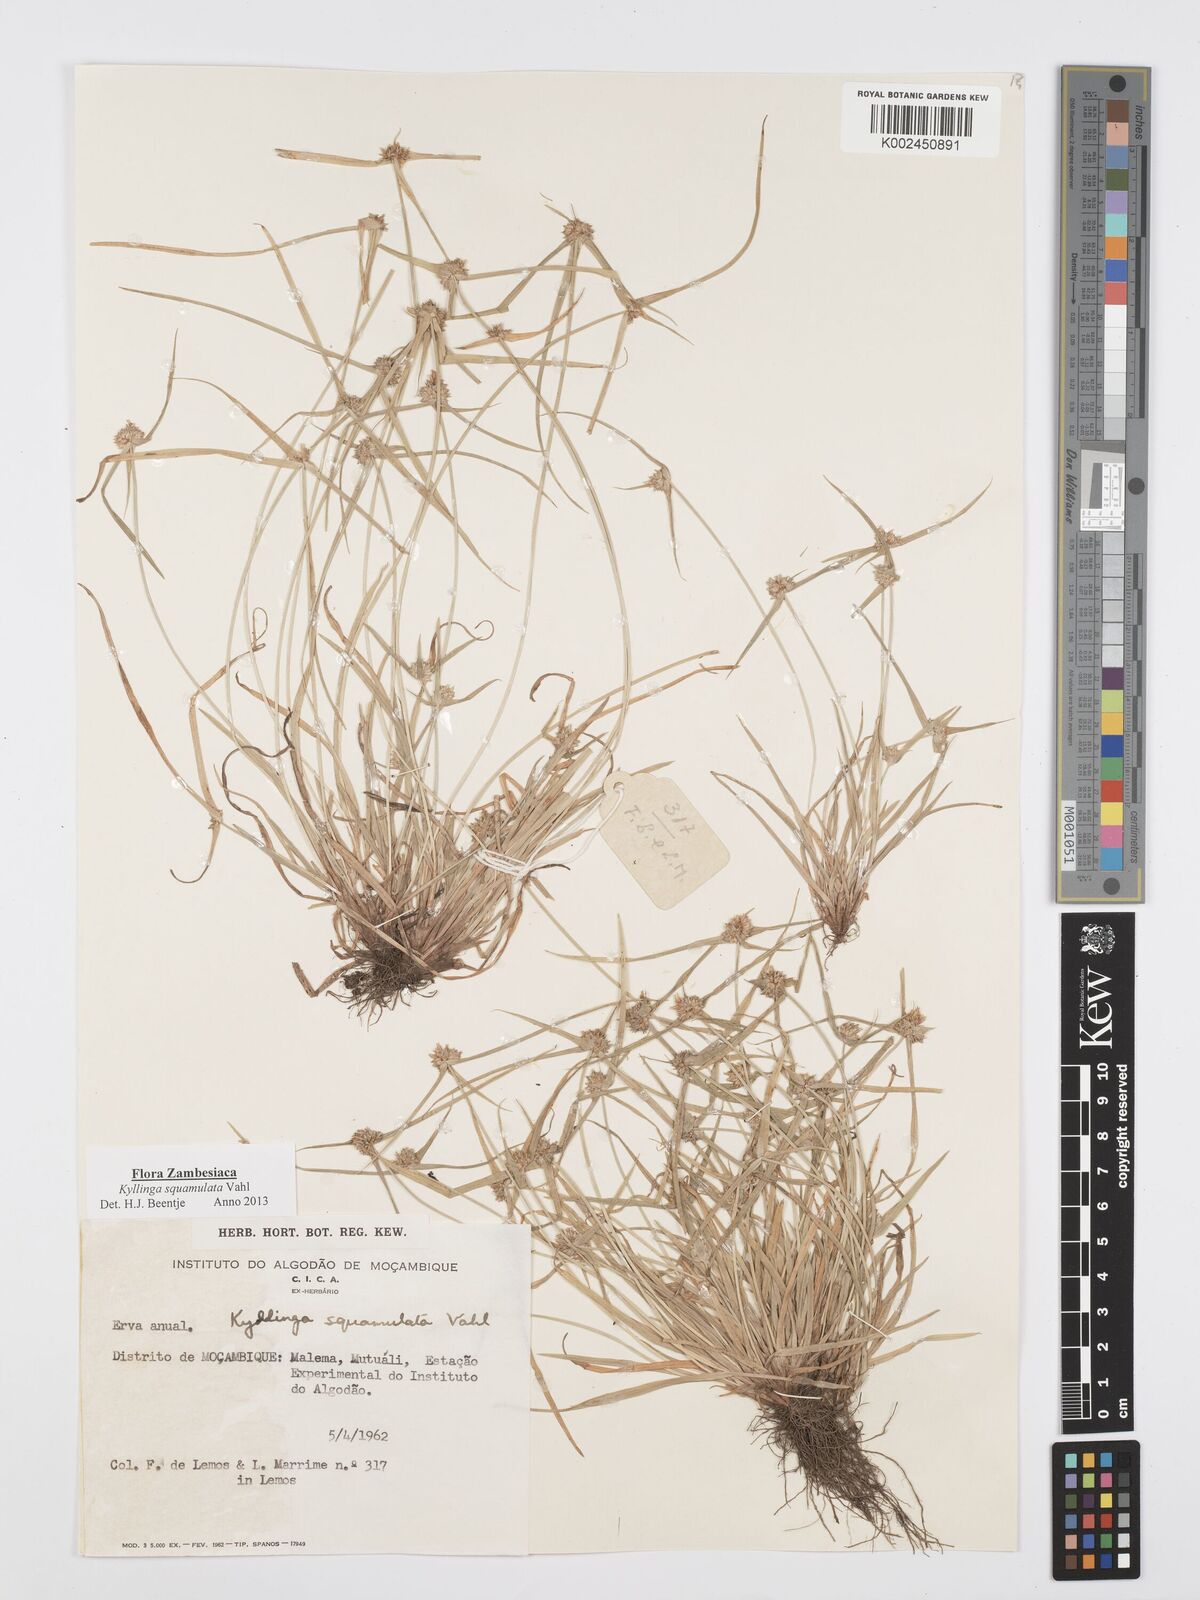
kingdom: Plantae
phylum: Tracheophyta
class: Liliopsida
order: Poales
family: Cyperaceae
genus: Cyperus
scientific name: Cyperus distans
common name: Slender cyperus
